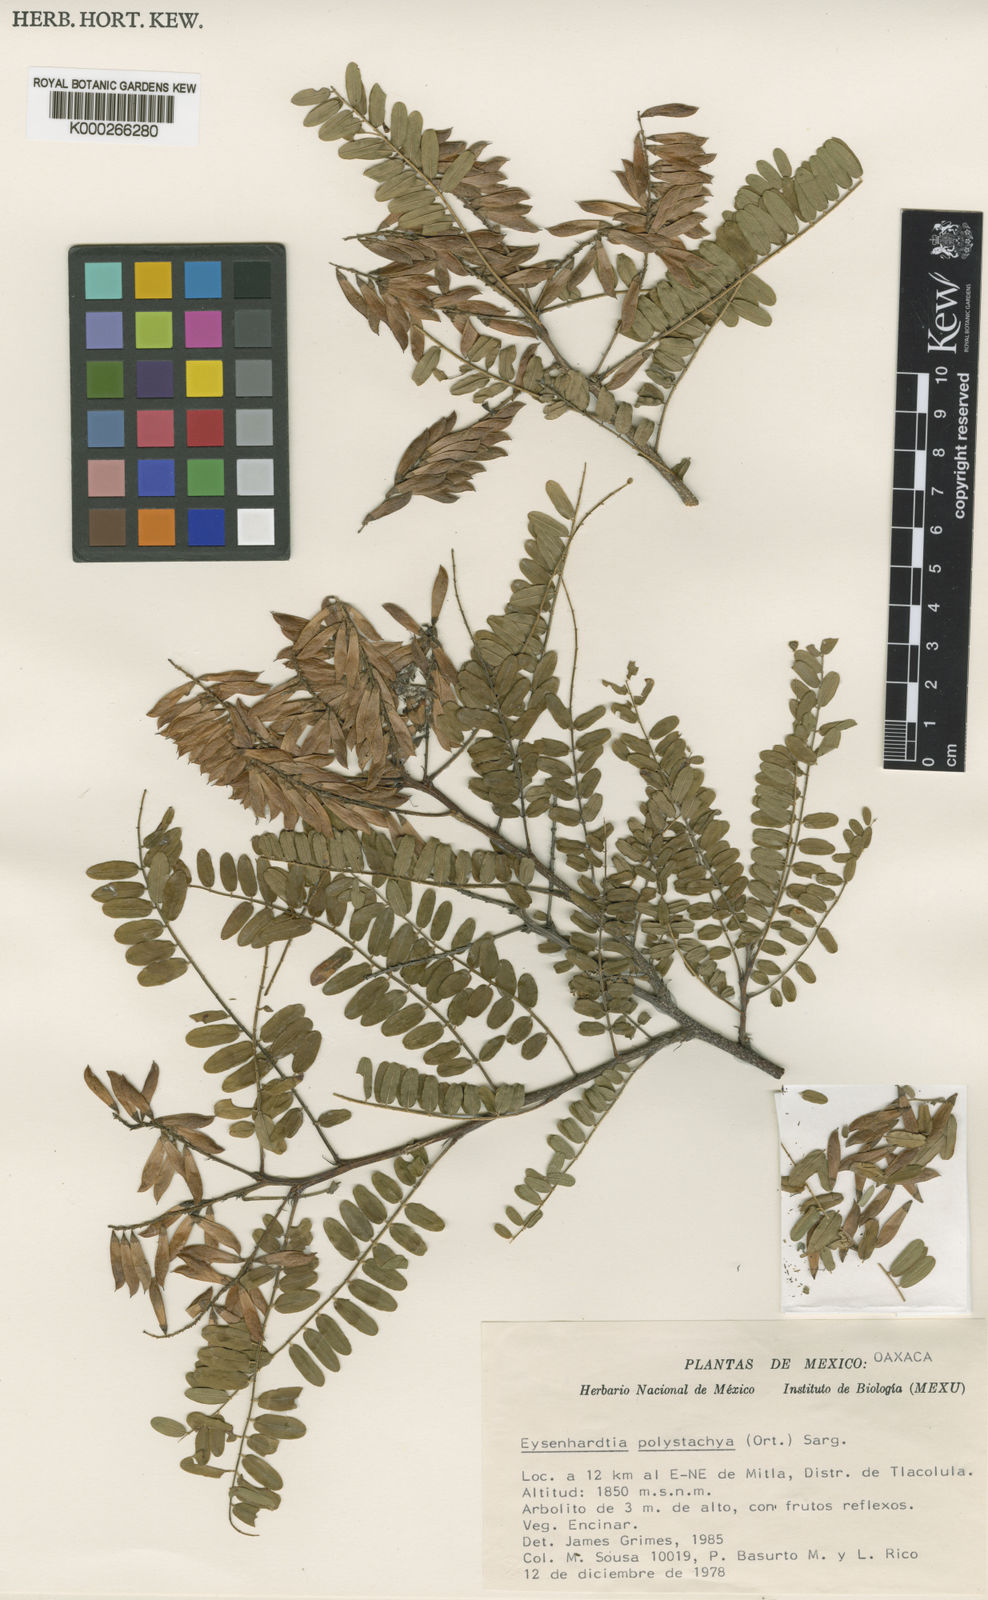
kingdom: Plantae
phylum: Tracheophyta
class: Magnoliopsida
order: Fabales
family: Fabaceae
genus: Eysenhardtia
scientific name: Eysenhardtia orthocarpa
